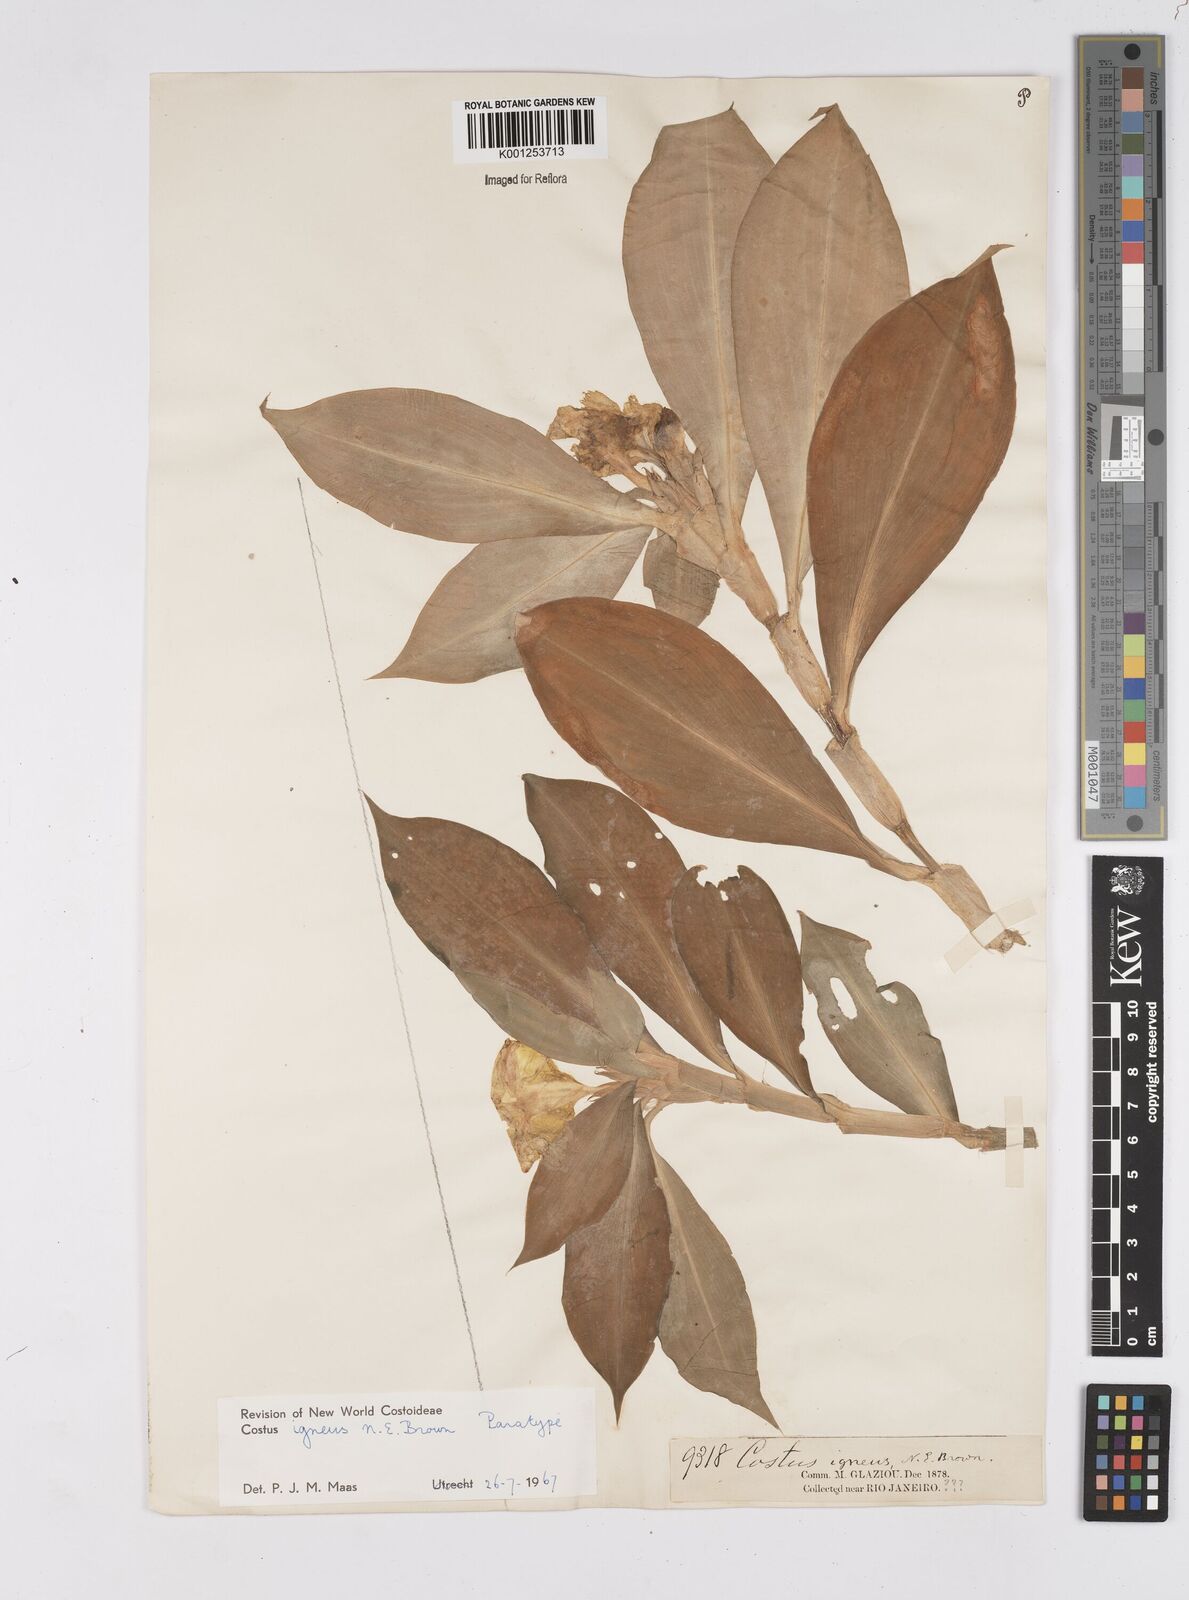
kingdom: Plantae
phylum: Tracheophyta
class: Liliopsida
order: Zingiberales
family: Costaceae
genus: Chamaecostus
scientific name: Chamaecostus cuspidatus
